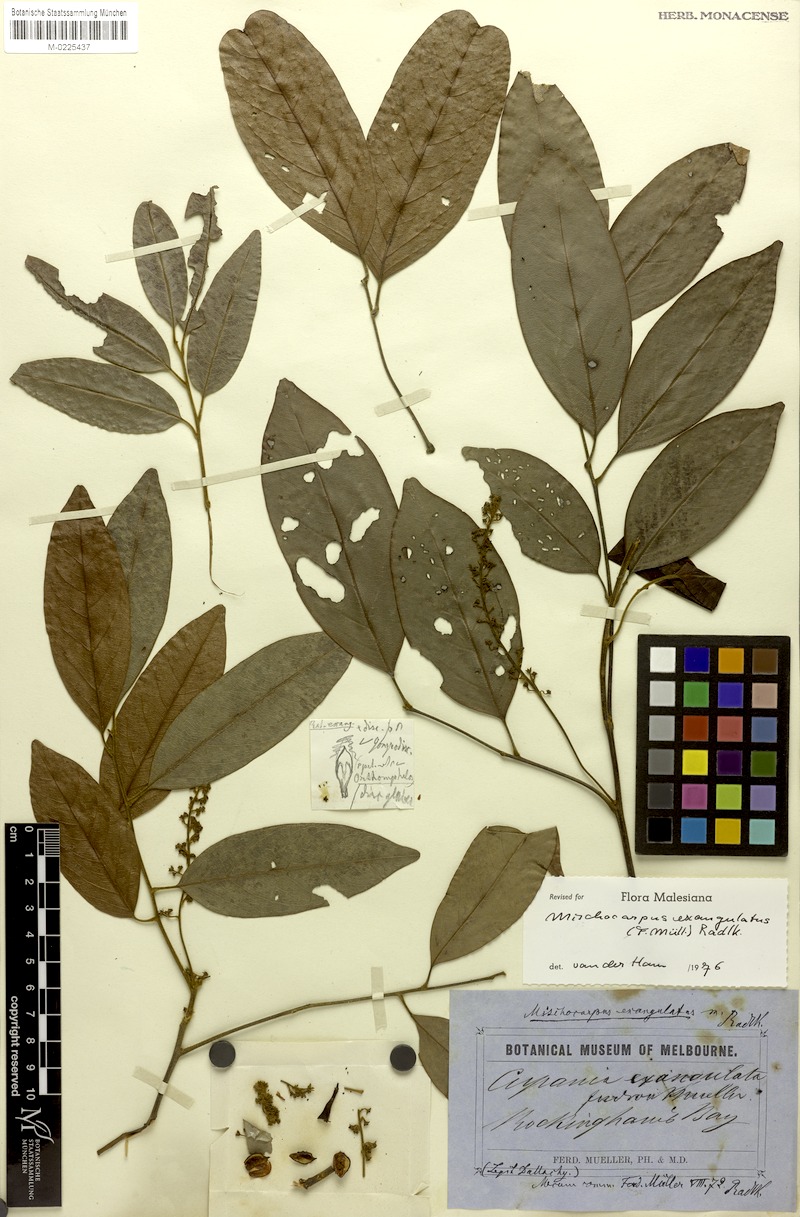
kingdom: Plantae
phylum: Tracheophyta
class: Magnoliopsida
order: Sapindales
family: Sapindaceae
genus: Mischocarpus
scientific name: Mischocarpus exangulatus
